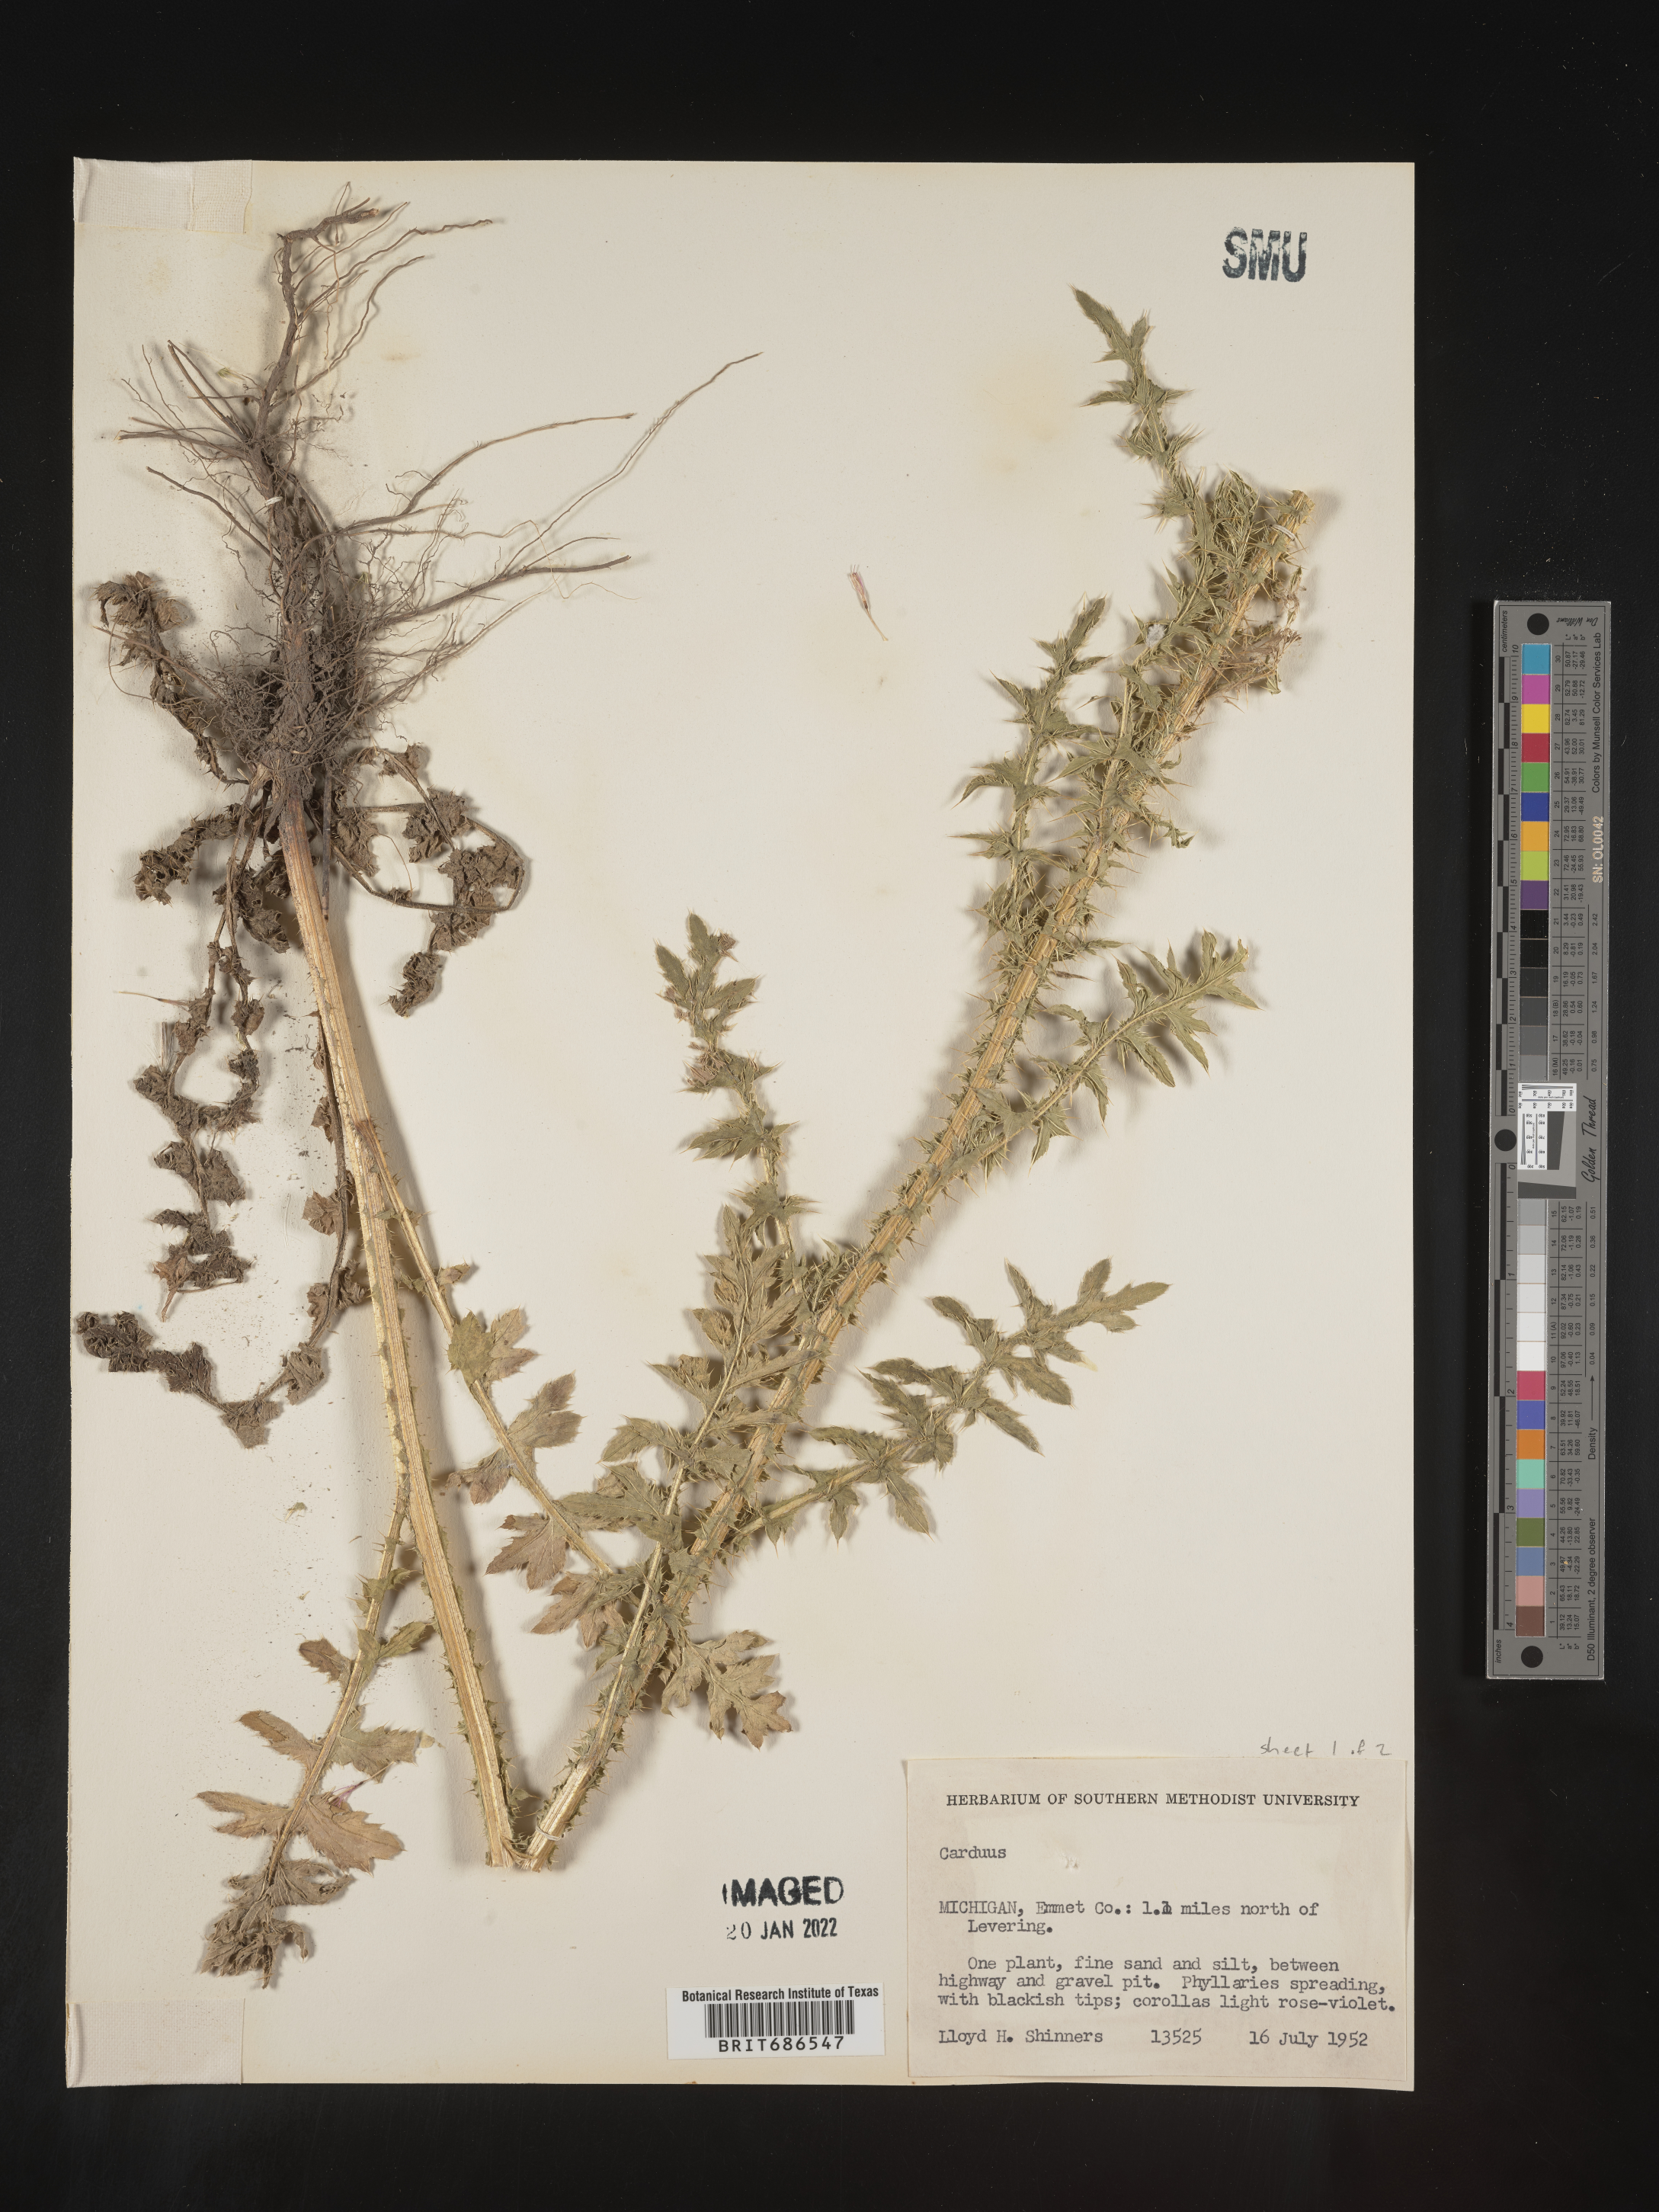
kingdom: Plantae
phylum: Tracheophyta
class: Magnoliopsida
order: Asterales
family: Asteraceae
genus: Carduus
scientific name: Carduus crispus
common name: Welted thistle
